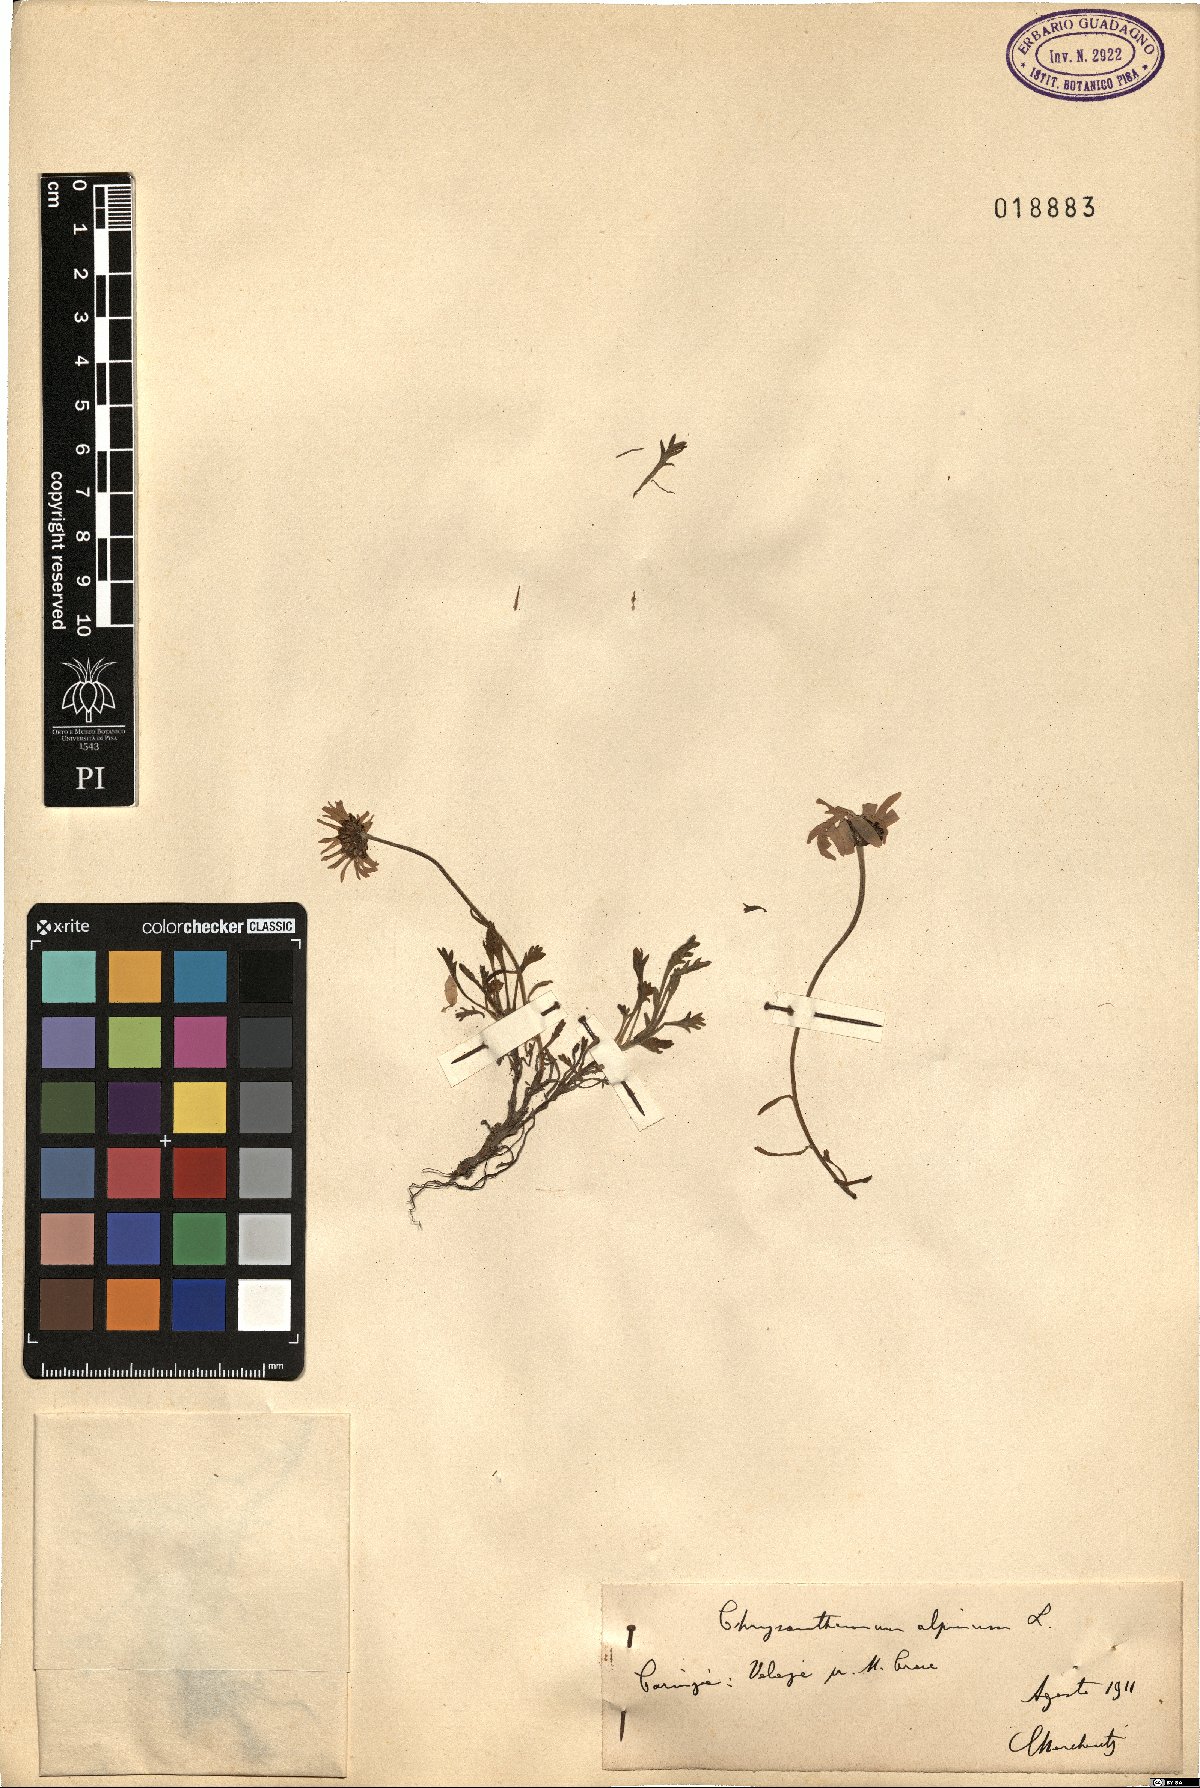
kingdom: Plantae
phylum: Tracheophyta
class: Magnoliopsida
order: Asterales
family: Asteraceae
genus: Leucanthemopsis
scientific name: Leucanthemopsis alpina
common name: Alpine moon daisy
